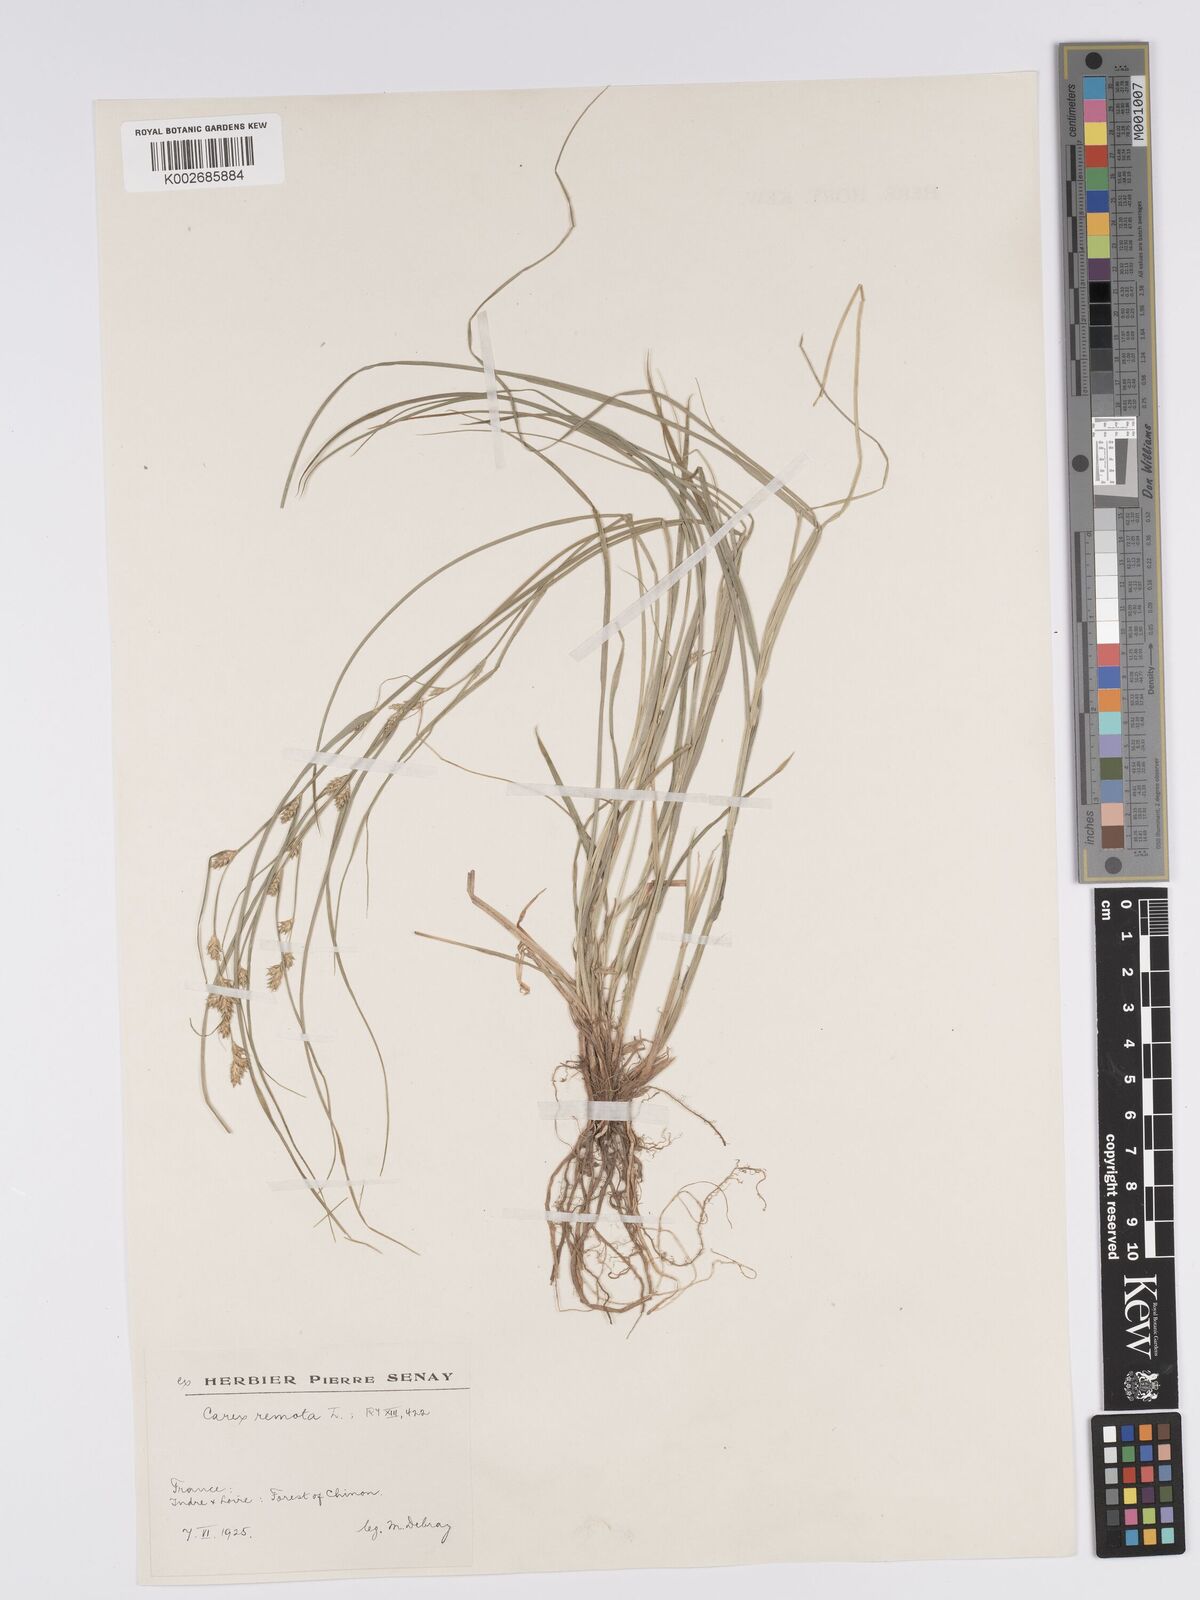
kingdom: Plantae
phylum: Tracheophyta
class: Liliopsida
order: Poales
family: Cyperaceae
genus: Carex
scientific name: Carex remota
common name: Remote sedge
